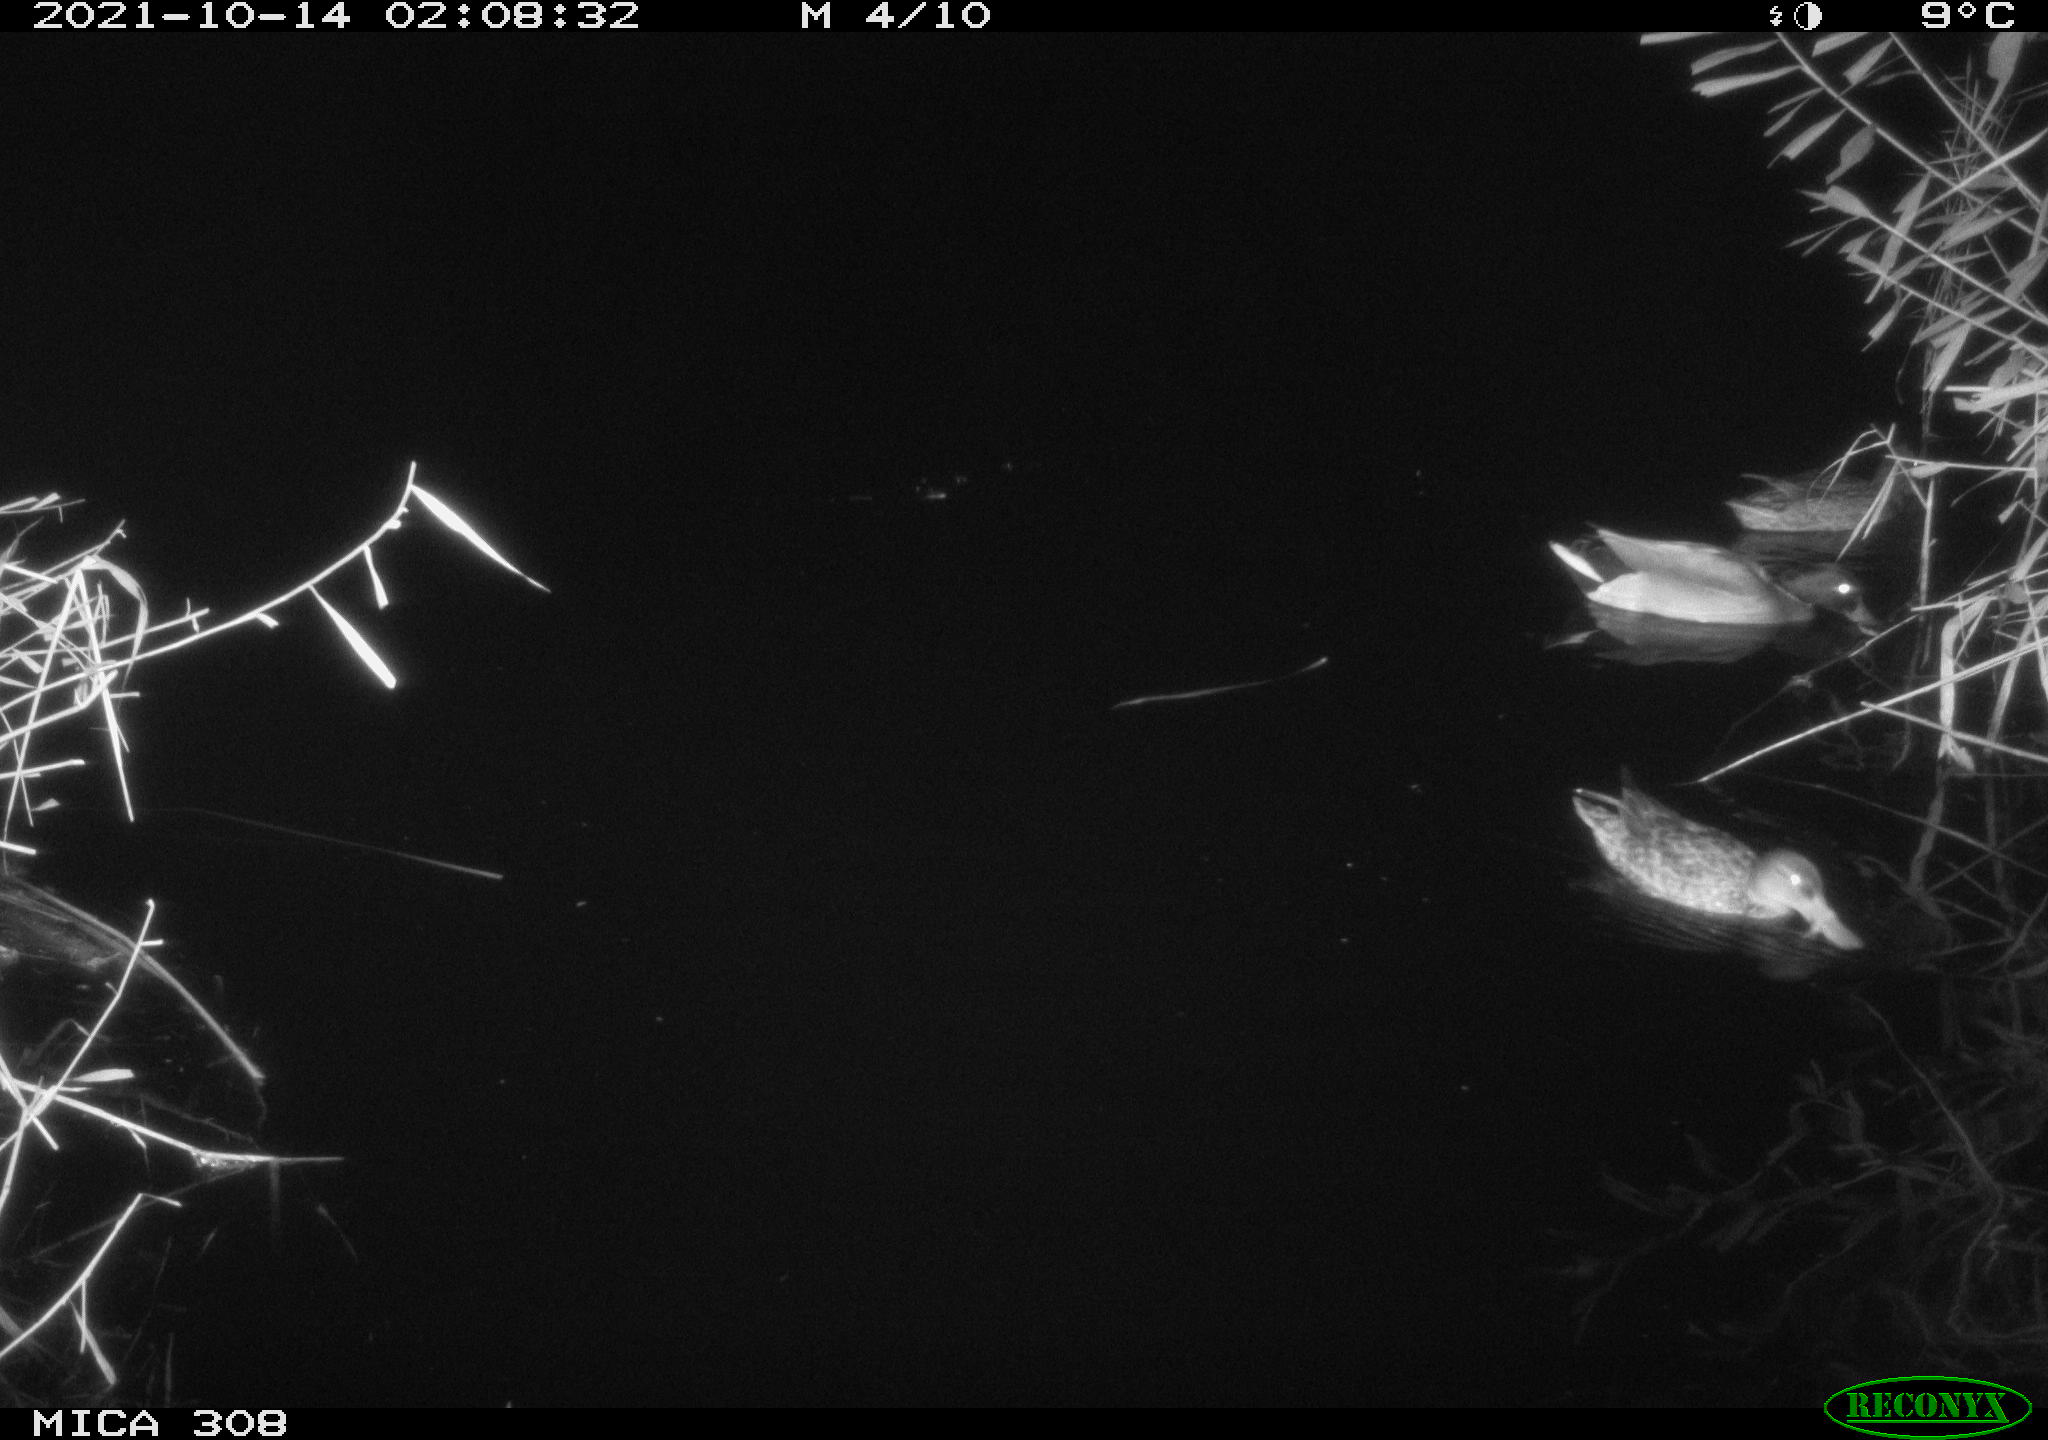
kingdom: Animalia
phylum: Chordata
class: Aves
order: Anseriformes
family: Anatidae
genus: Anas
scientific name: Anas platyrhynchos
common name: Mallard
